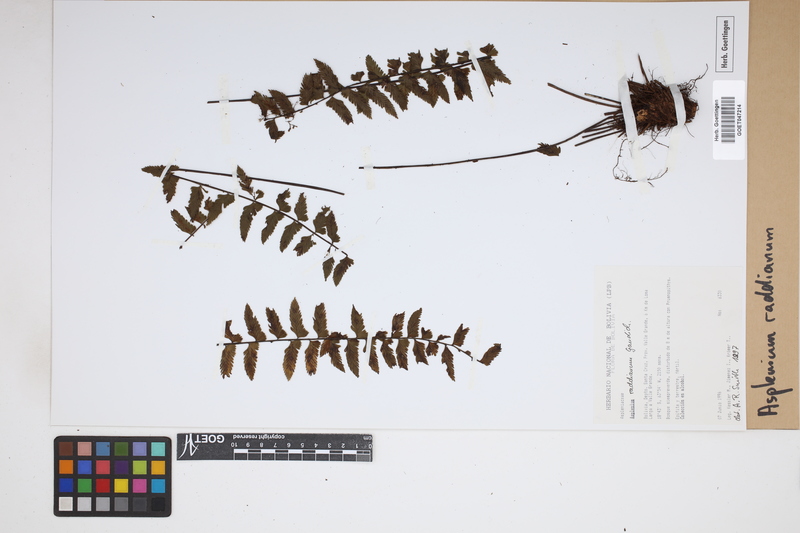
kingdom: Plantae
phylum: Tracheophyta
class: Polypodiopsida
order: Polypodiales
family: Aspleniaceae
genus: Asplenium
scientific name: Asplenium raddianum
